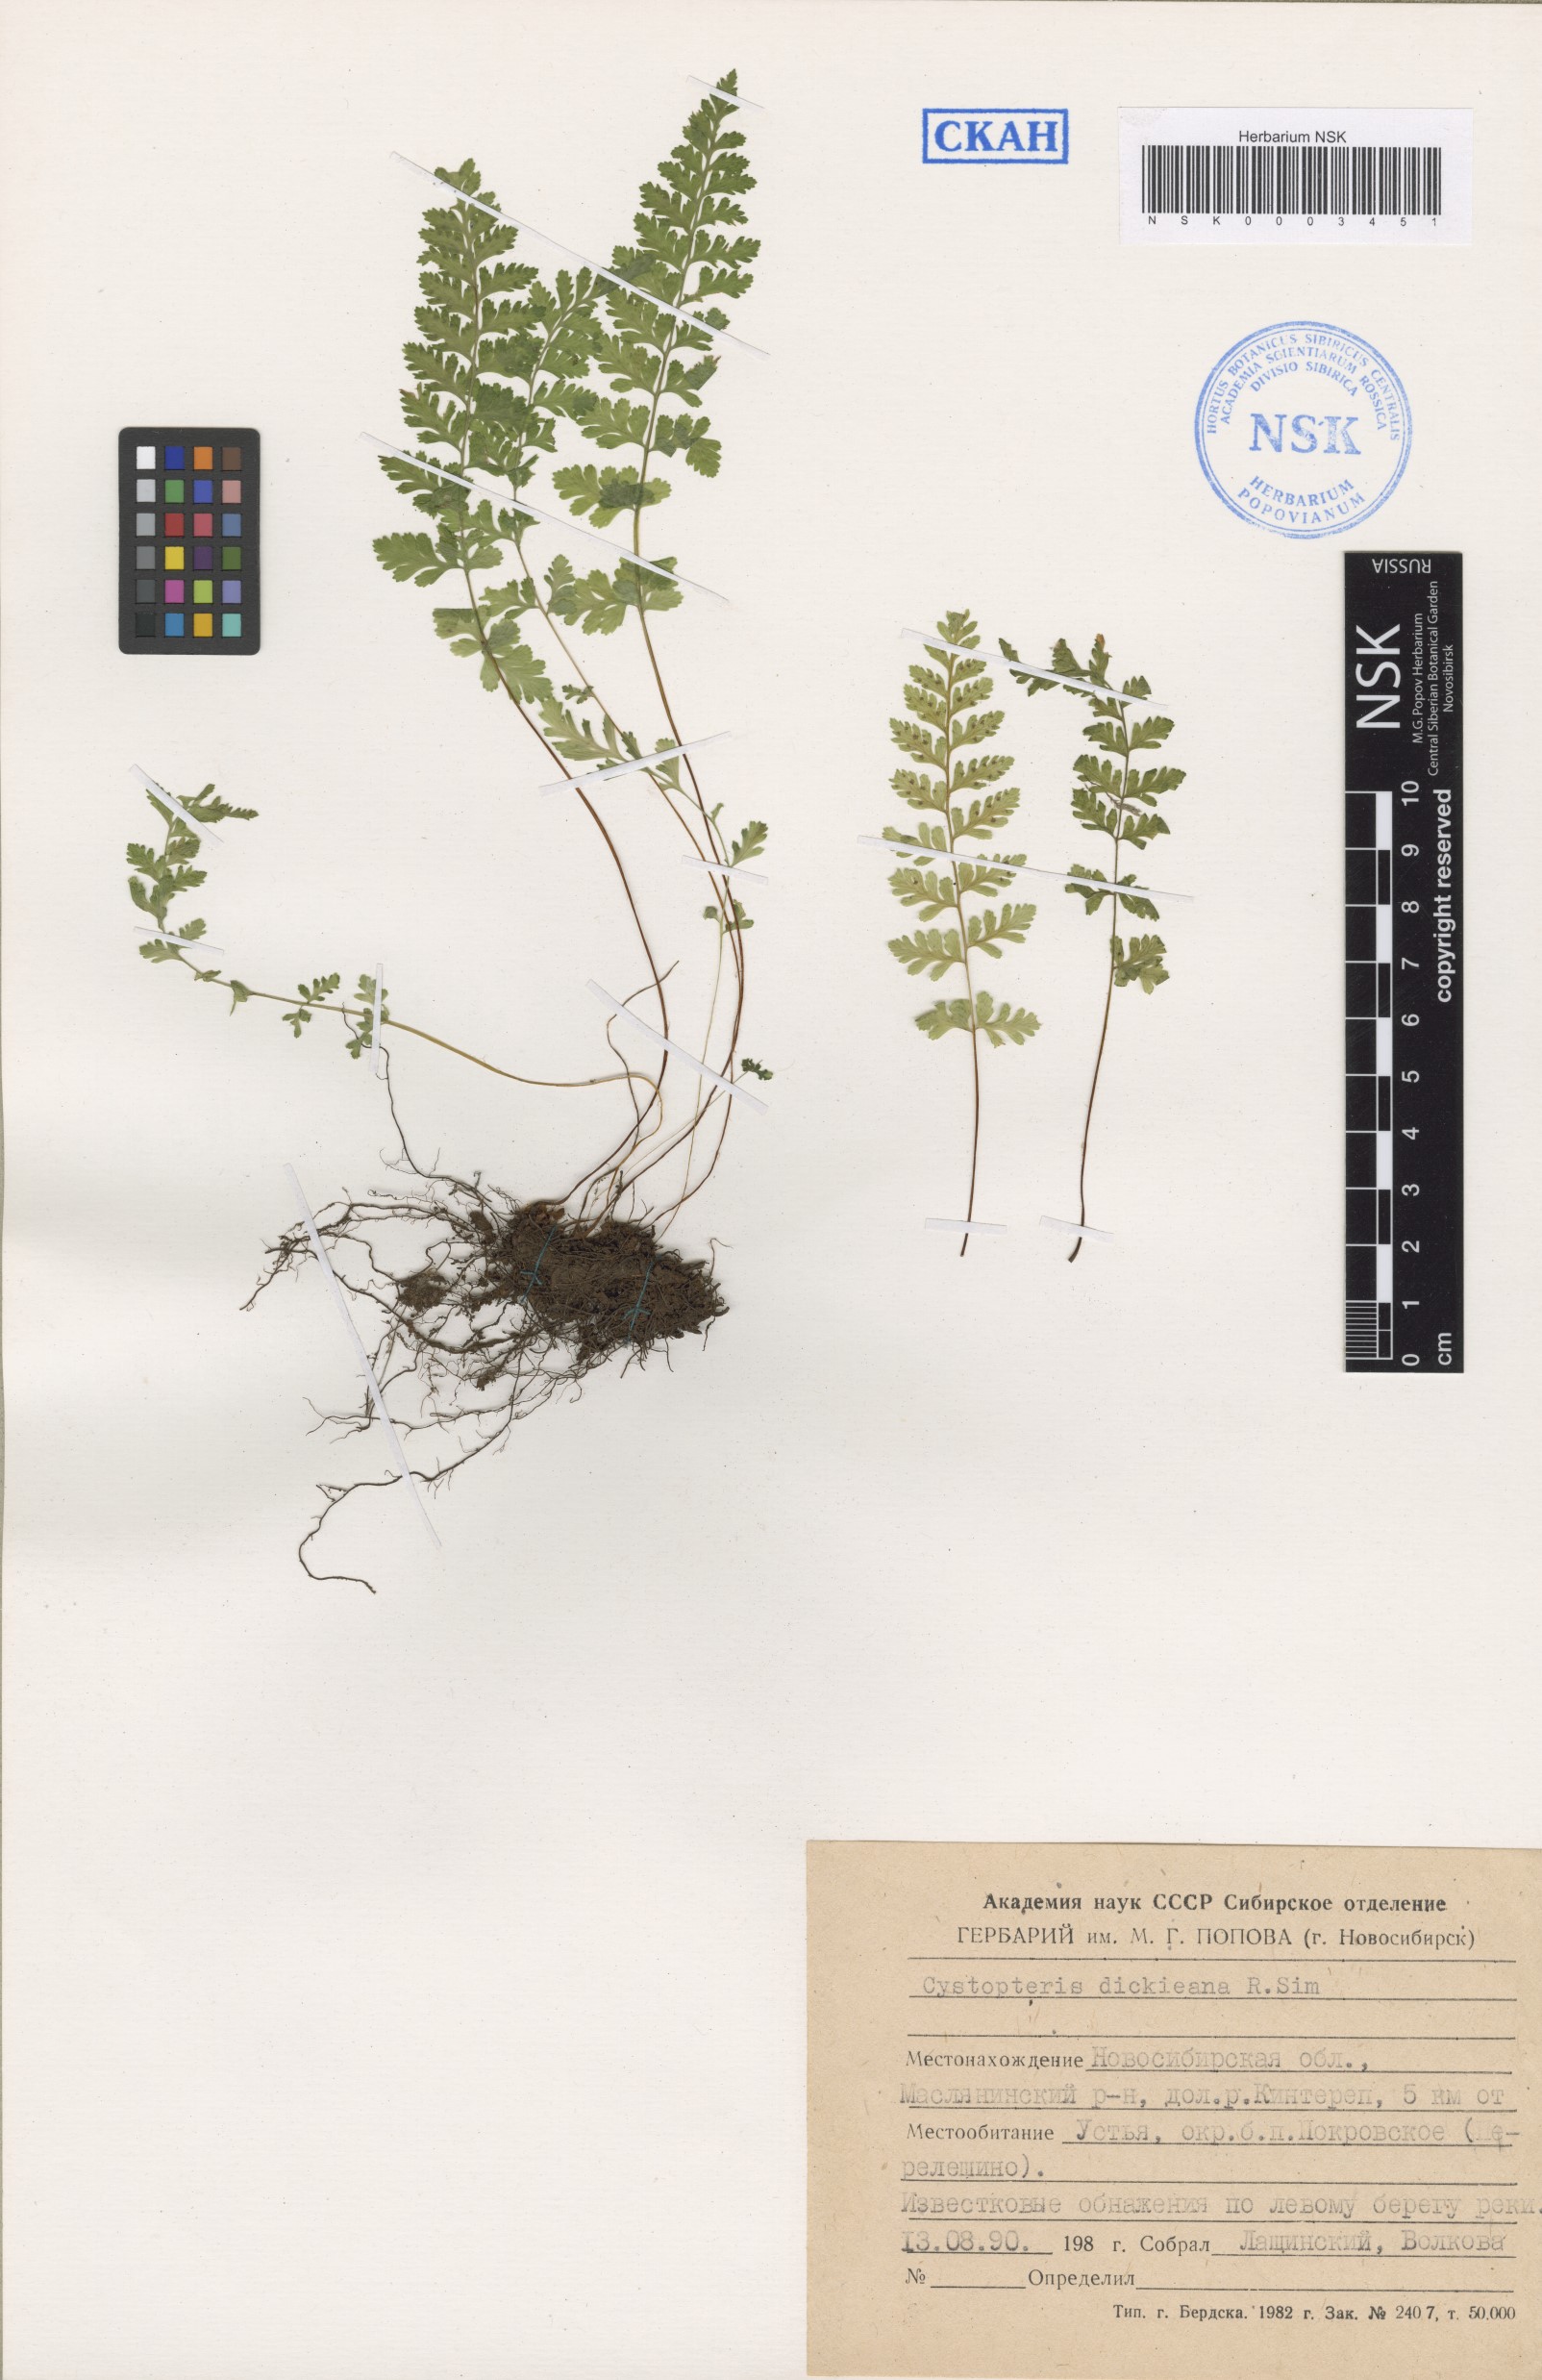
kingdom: Plantae
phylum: Tracheophyta
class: Polypodiopsida
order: Polypodiales
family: Cystopteridaceae
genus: Cystopteris
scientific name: Cystopteris dickieana
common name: Dickie's bladder-fern
